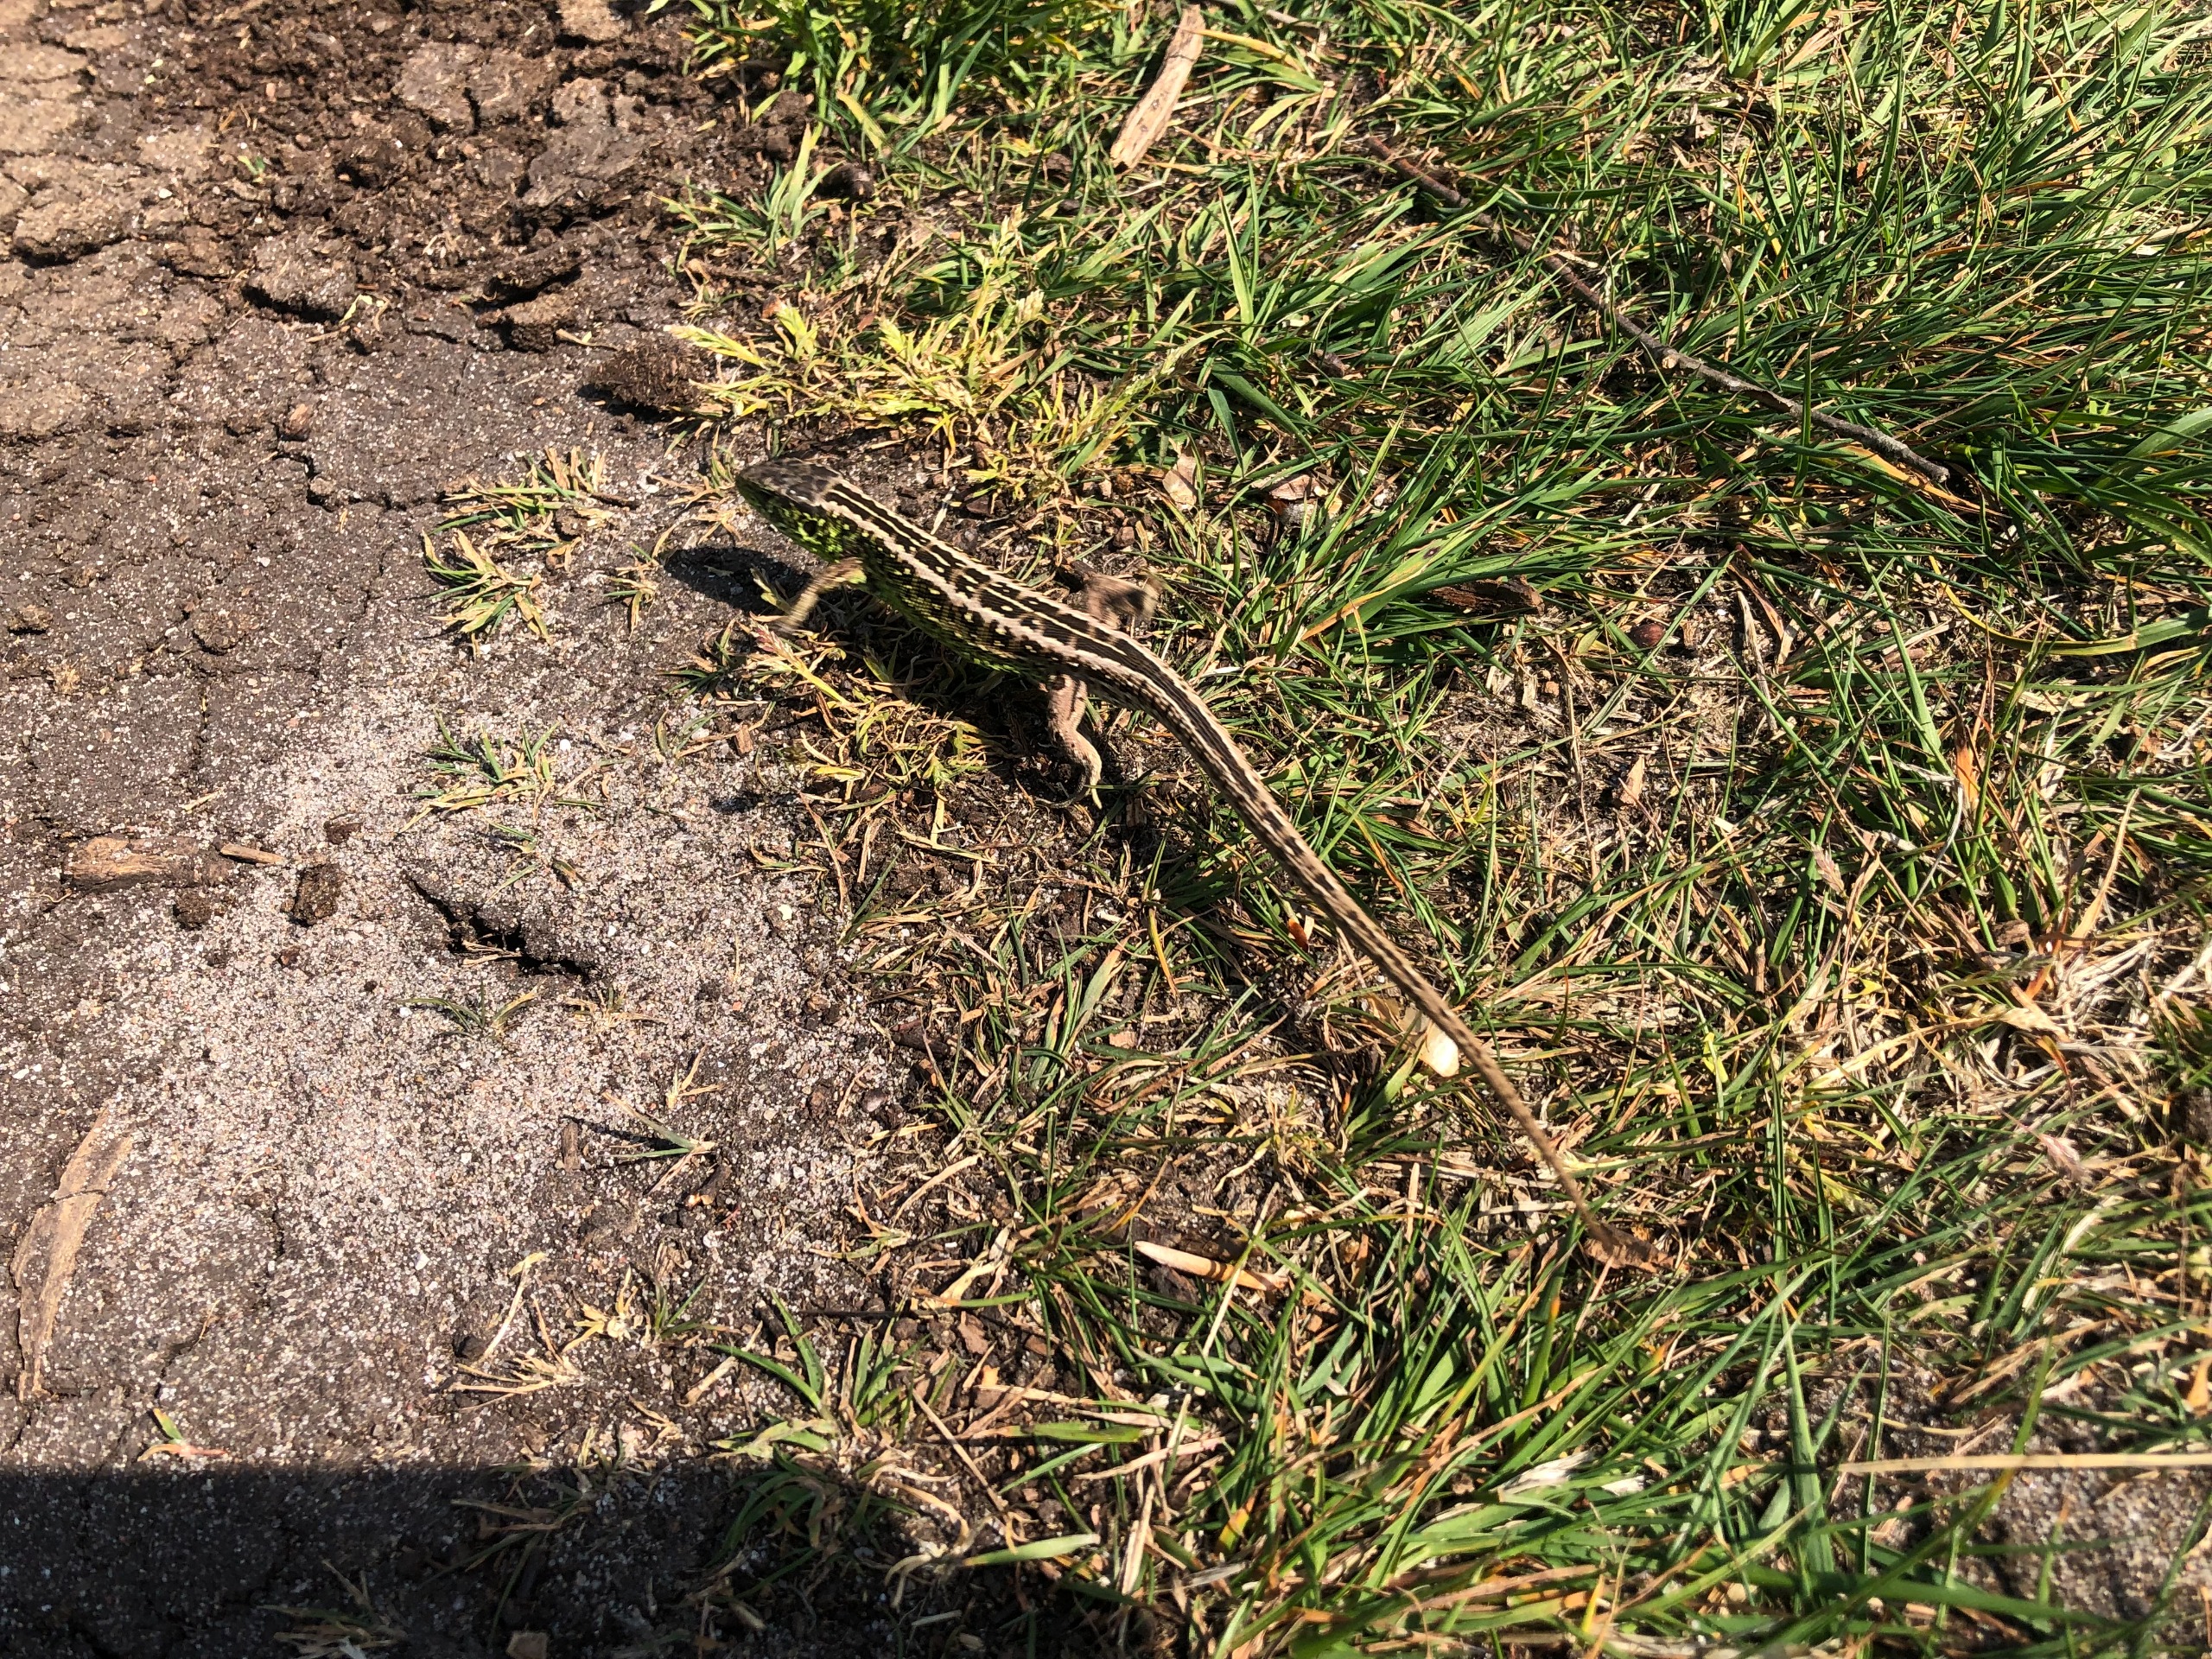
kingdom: Animalia
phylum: Chordata
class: Squamata
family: Lacertidae
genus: Lacerta
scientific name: Lacerta agilis
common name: Markfirben
